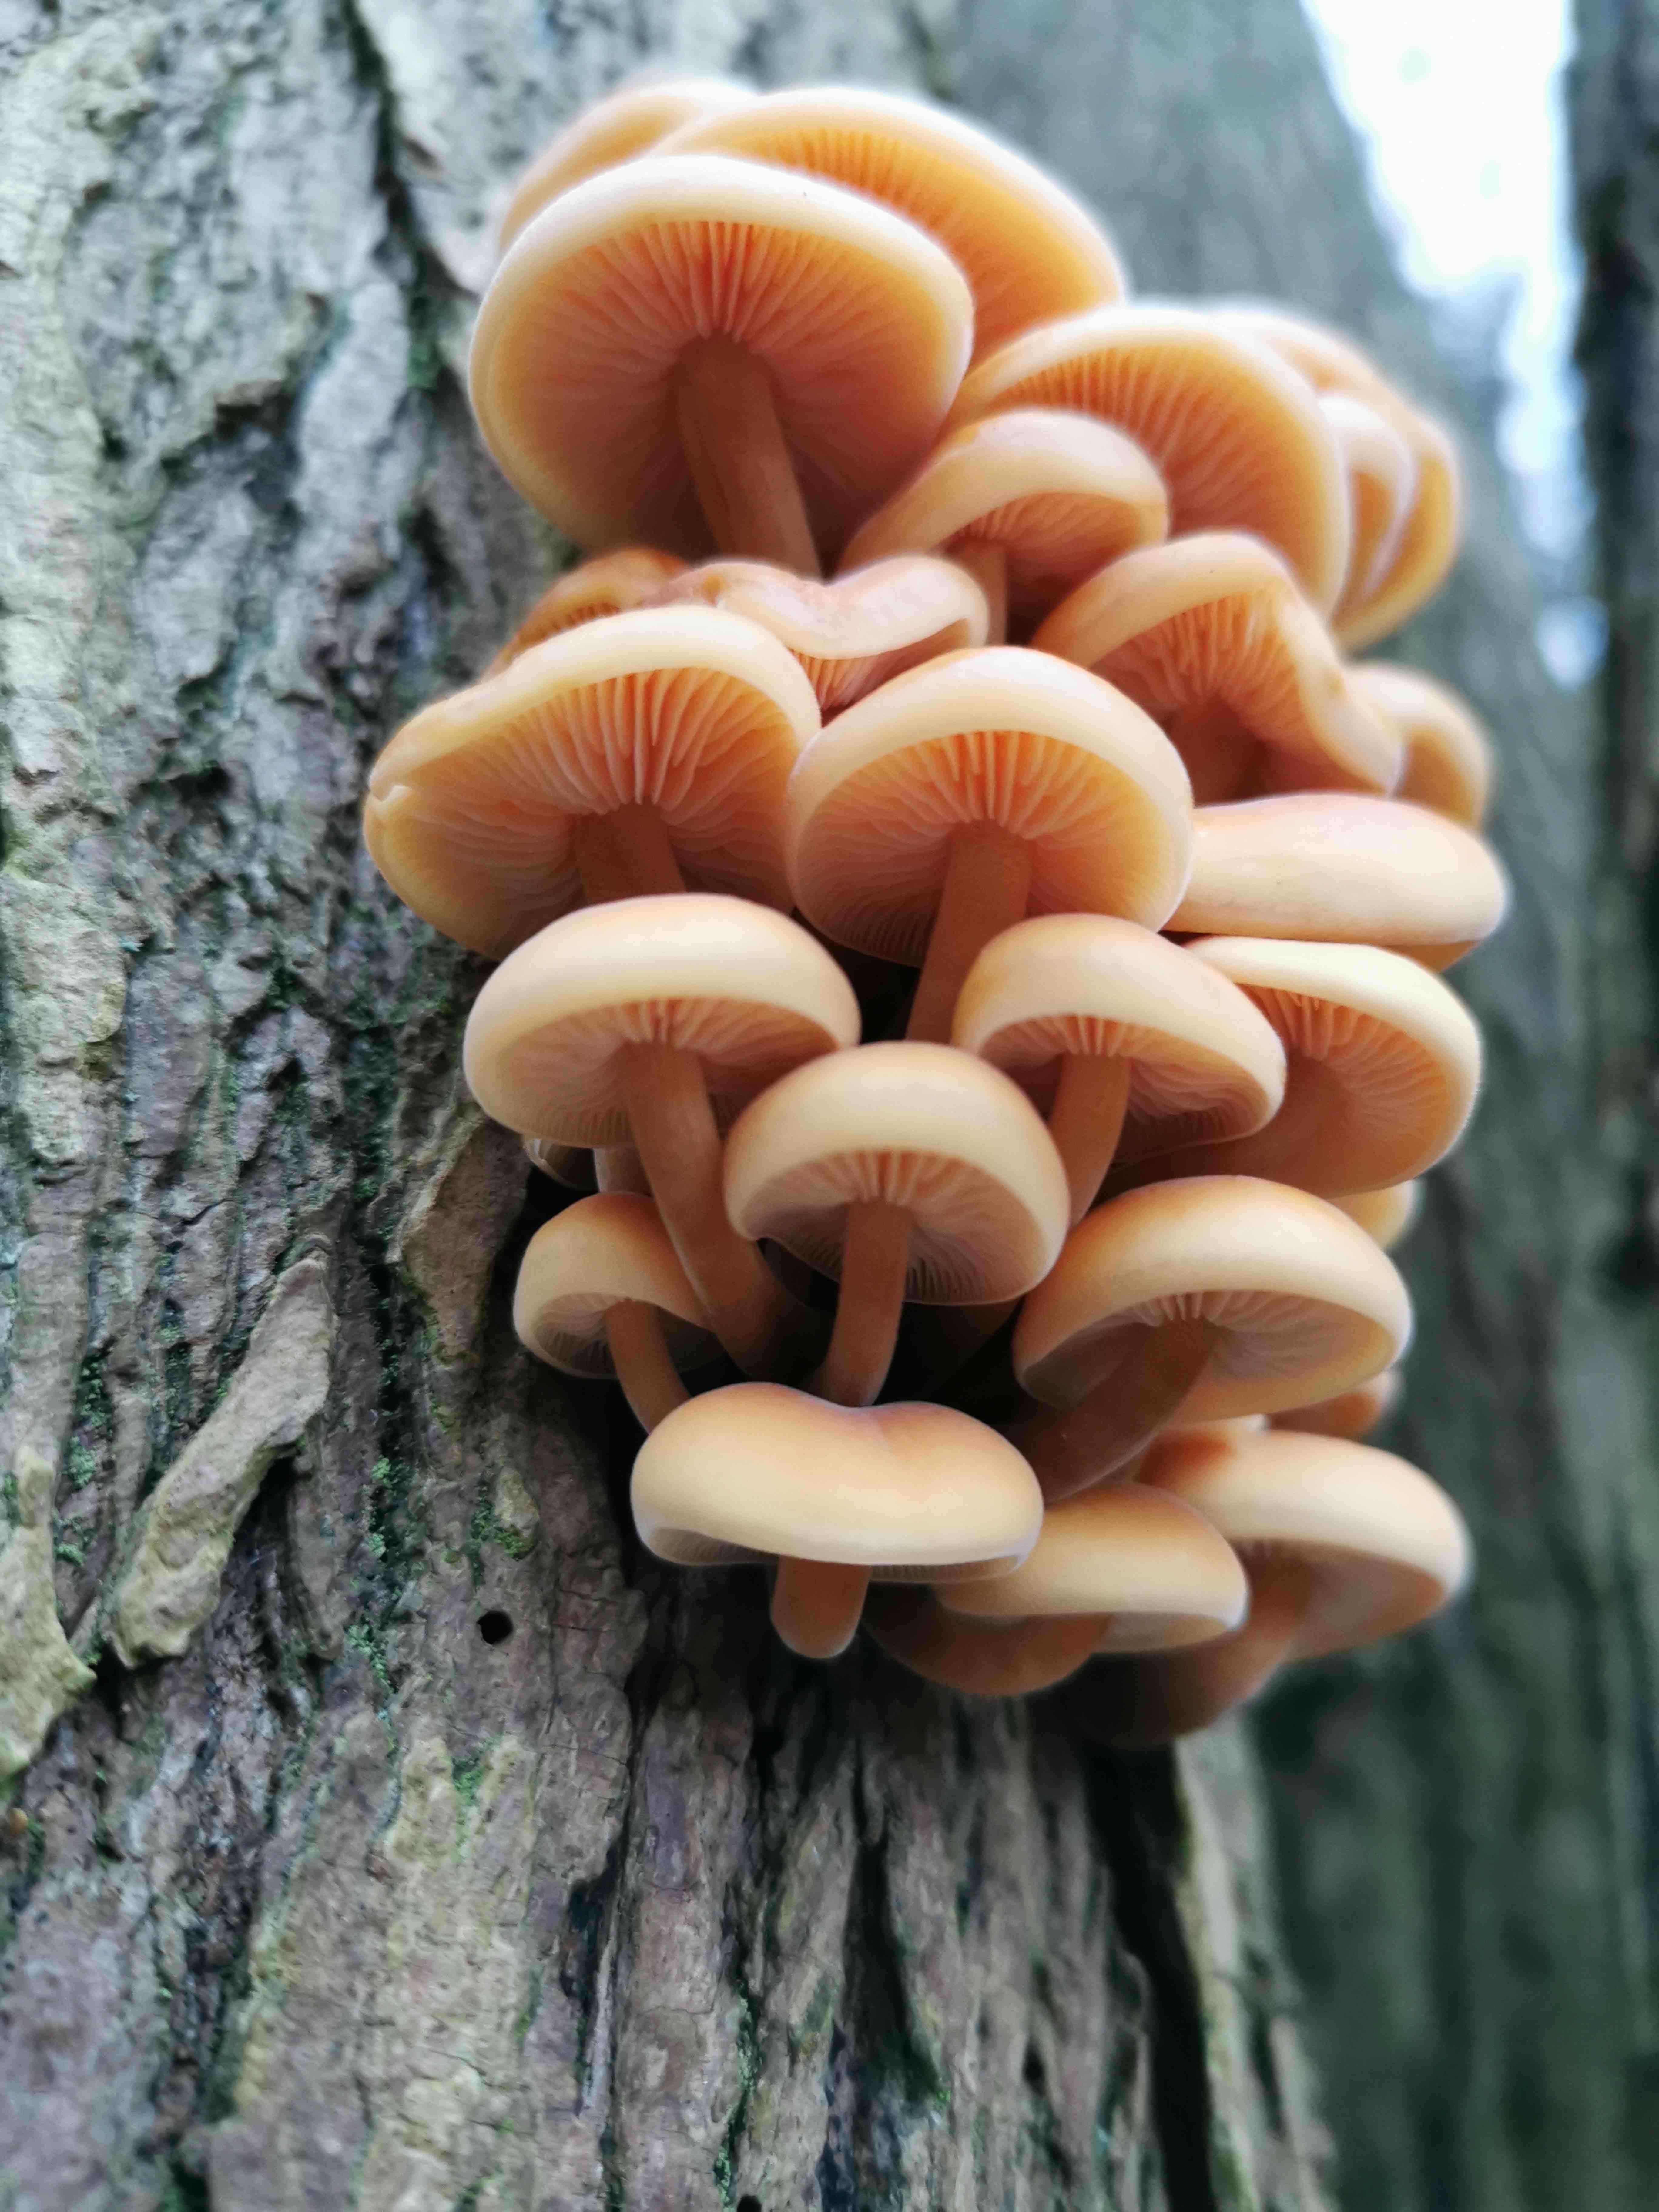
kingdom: Fungi
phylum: Basidiomycota
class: Agaricomycetes
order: Agaricales
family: Physalacriaceae
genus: Flammulina
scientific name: Flammulina velutipes
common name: gul fløjlsfod
